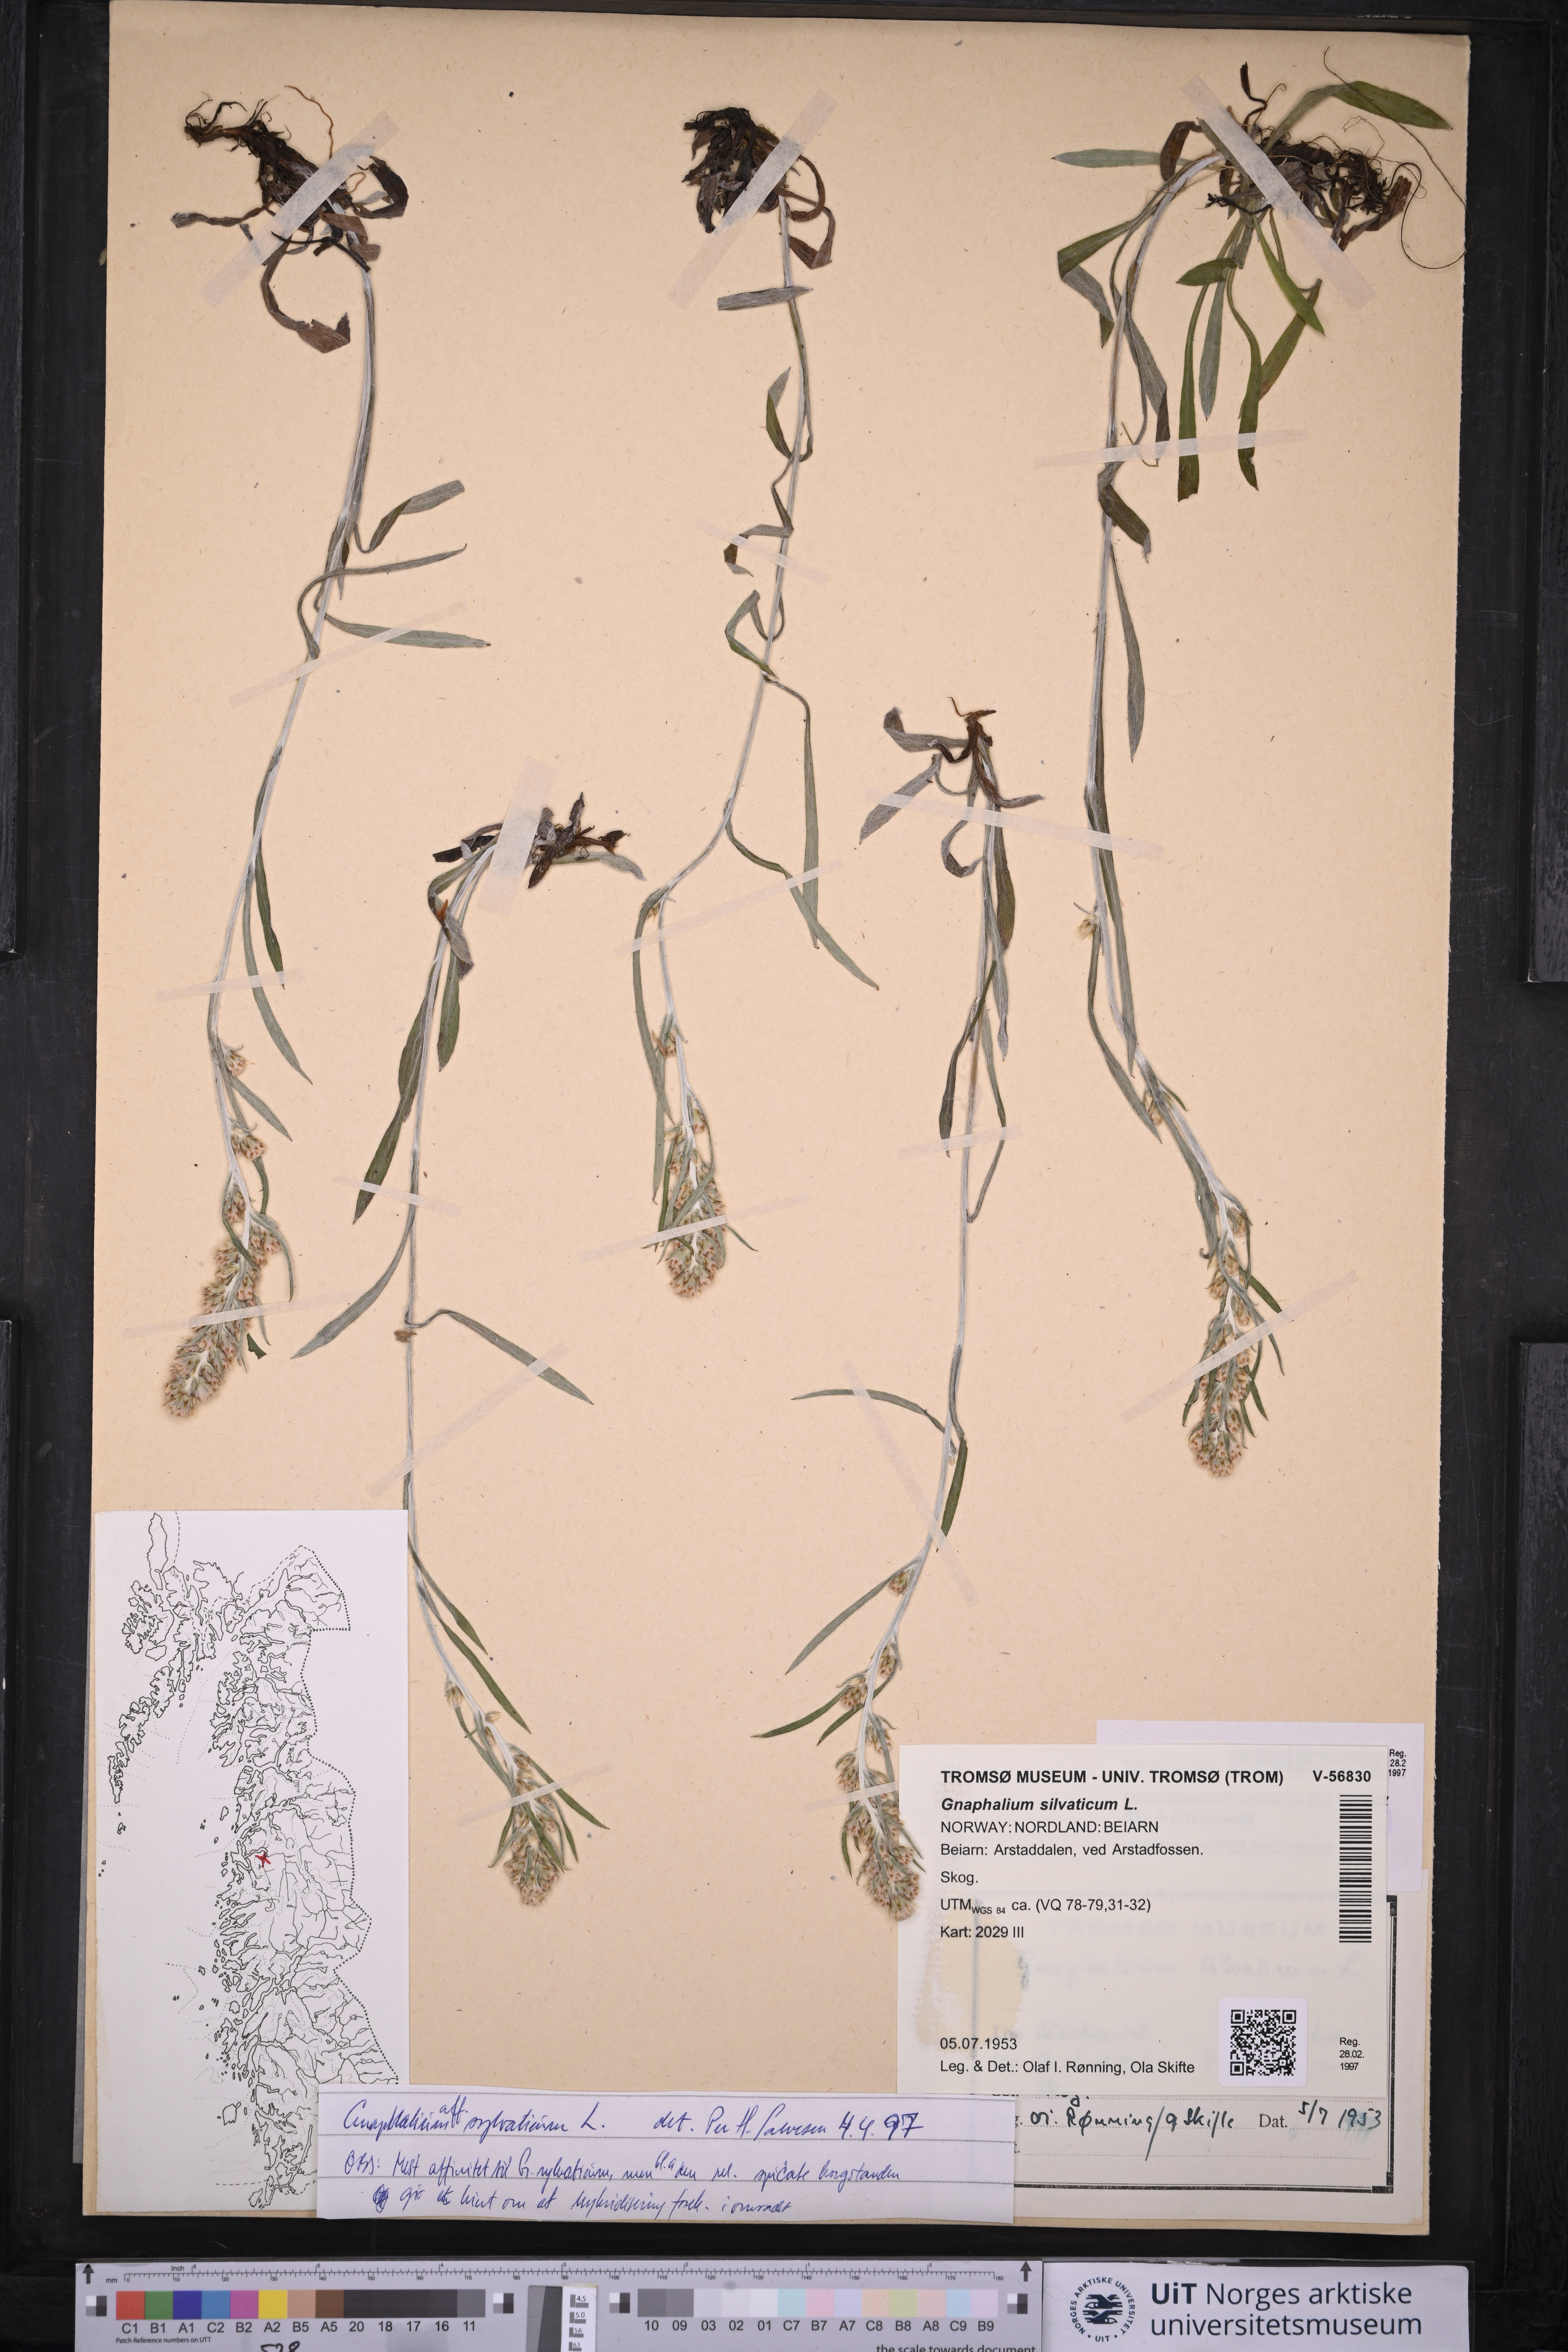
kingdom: Plantae
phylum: Tracheophyta
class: Magnoliopsida
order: Asterales
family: Asteraceae
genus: Omalotheca
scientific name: Omalotheca sylvatica
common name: Heath cudweed
